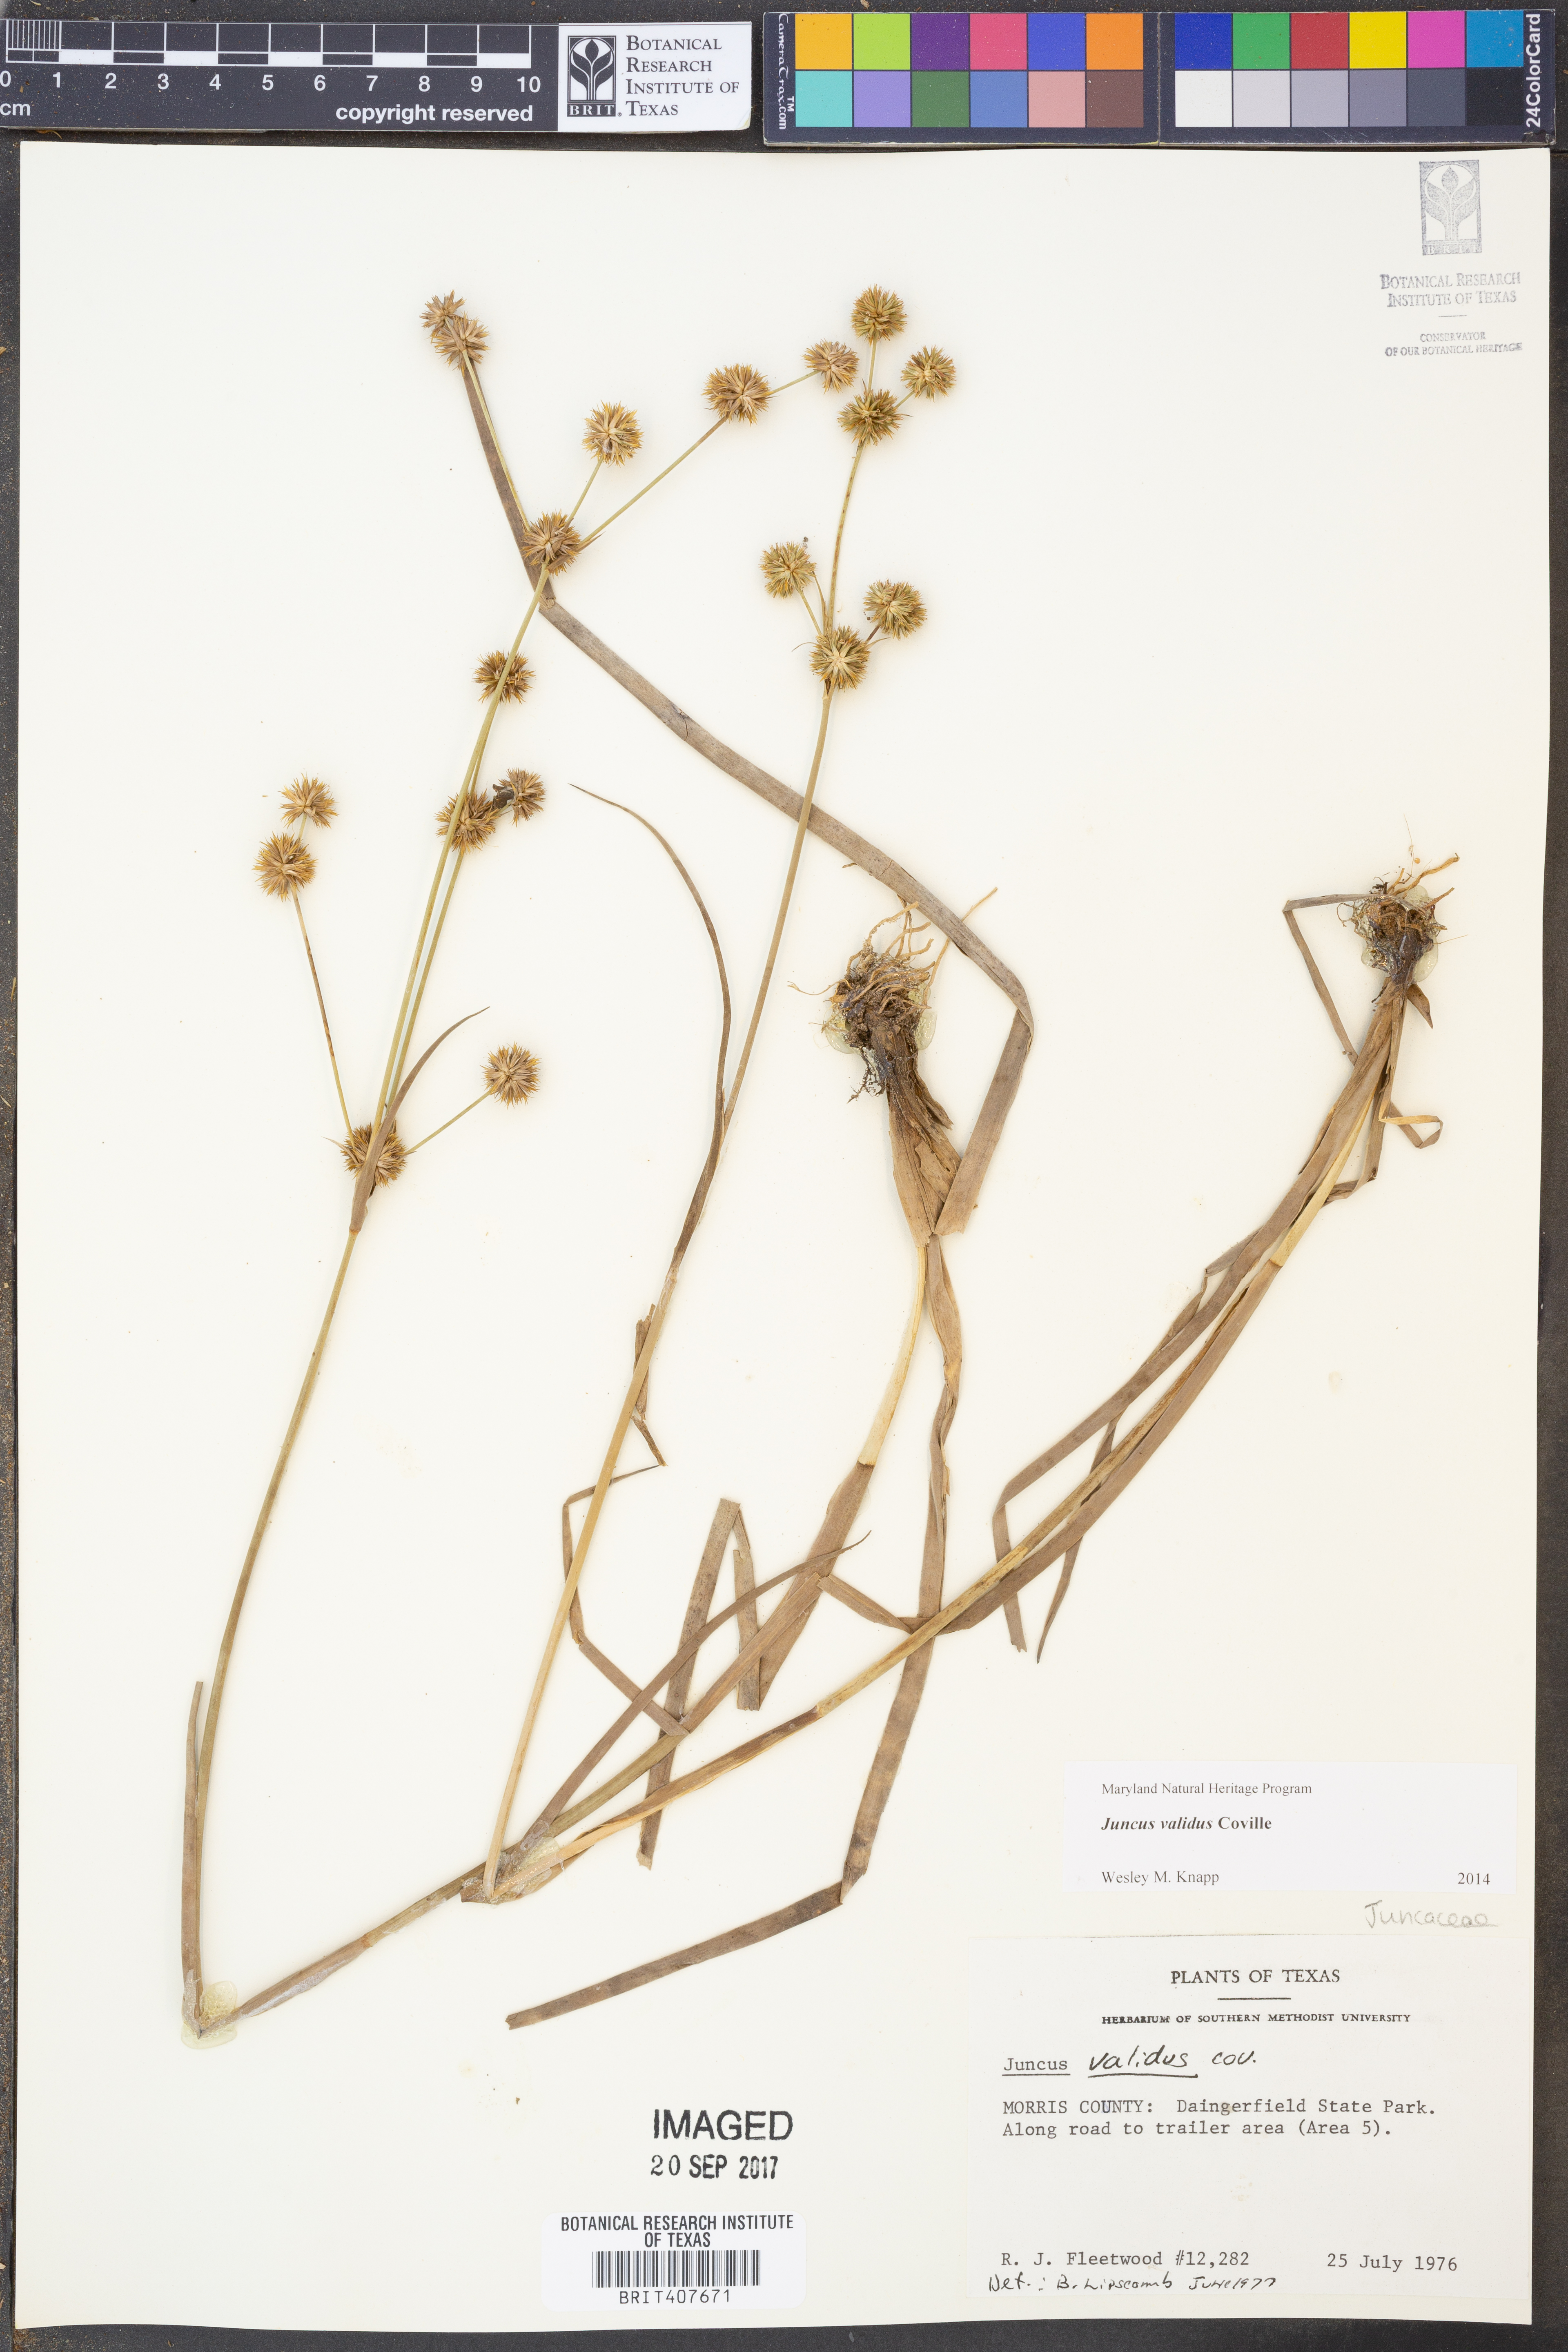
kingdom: Plantae
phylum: Tracheophyta
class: Liliopsida
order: Poales
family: Juncaceae
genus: Juncus
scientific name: Juncus validus
